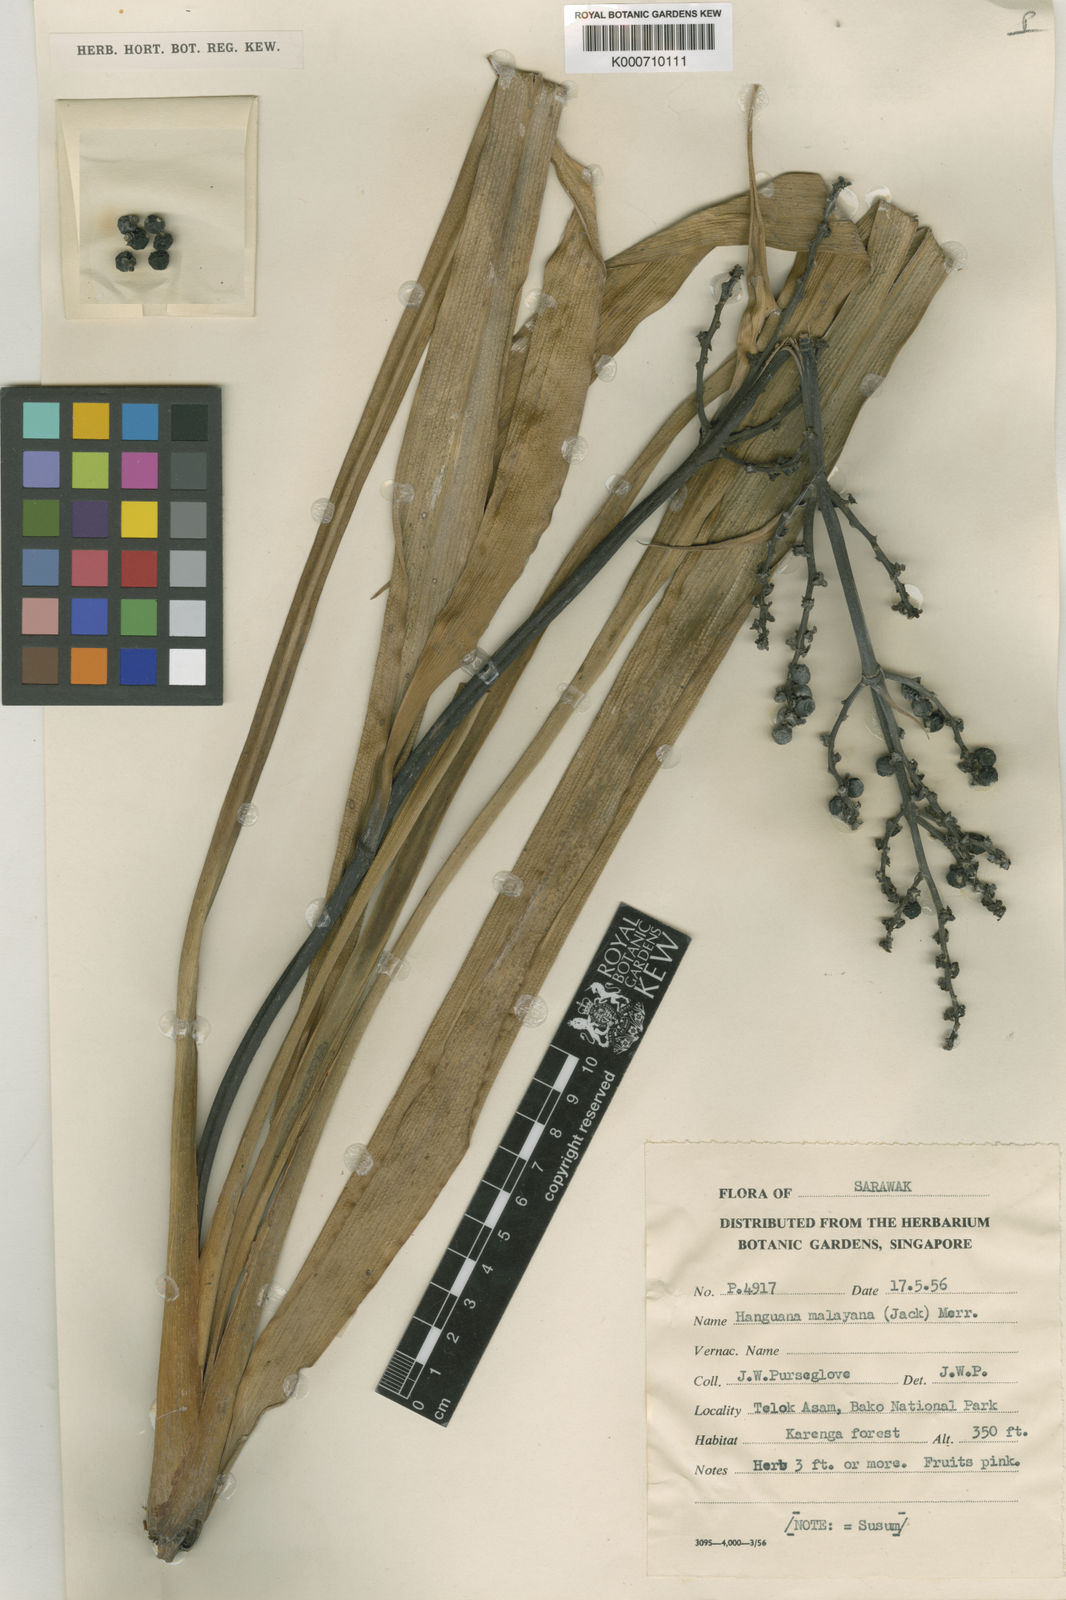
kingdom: Plantae
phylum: Tracheophyta
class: Liliopsida
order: Commelinales
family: Hanguanaceae
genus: Hanguana
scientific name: Hanguana malayana
